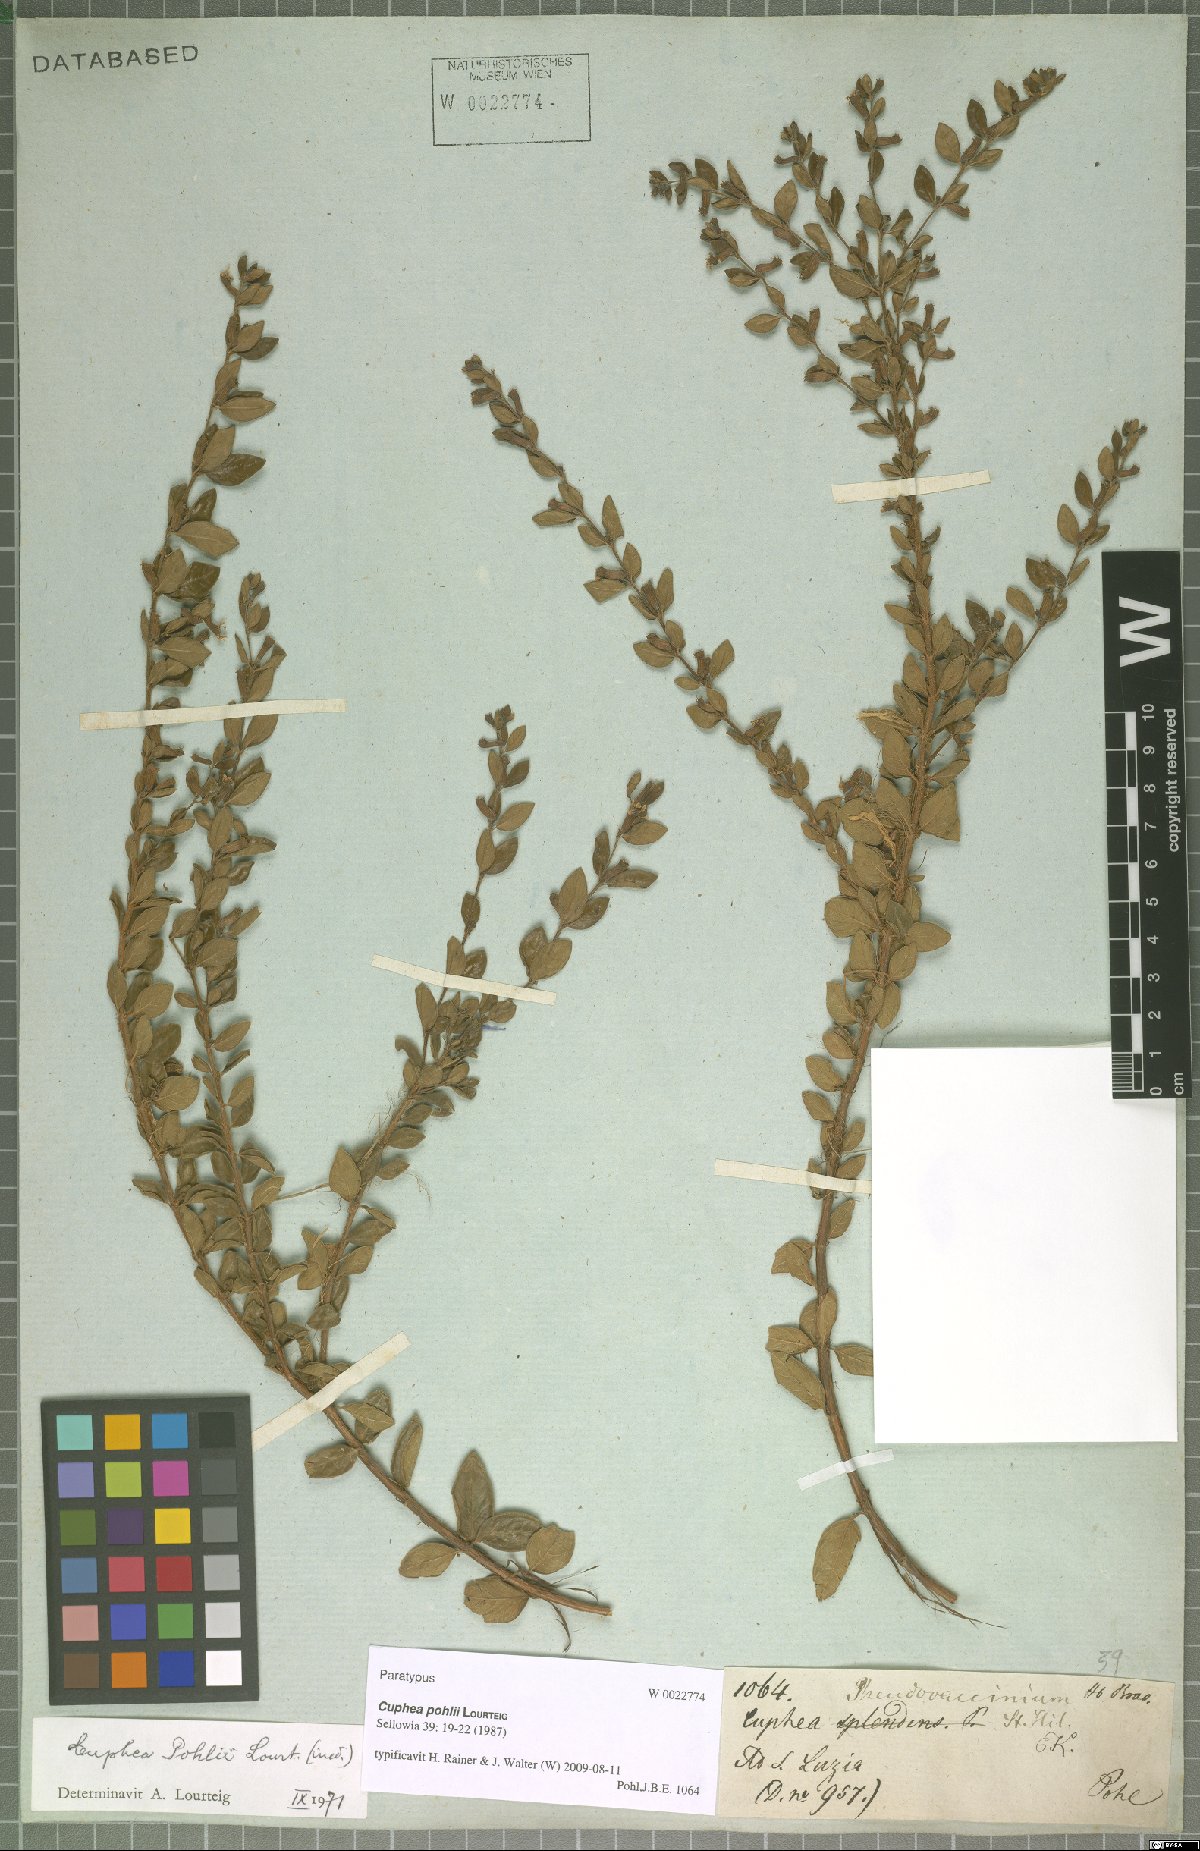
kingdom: Plantae
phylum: Tracheophyta
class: Magnoliopsida
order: Myrtales
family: Lythraceae
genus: Cuphea
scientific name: Cuphea pohlii
